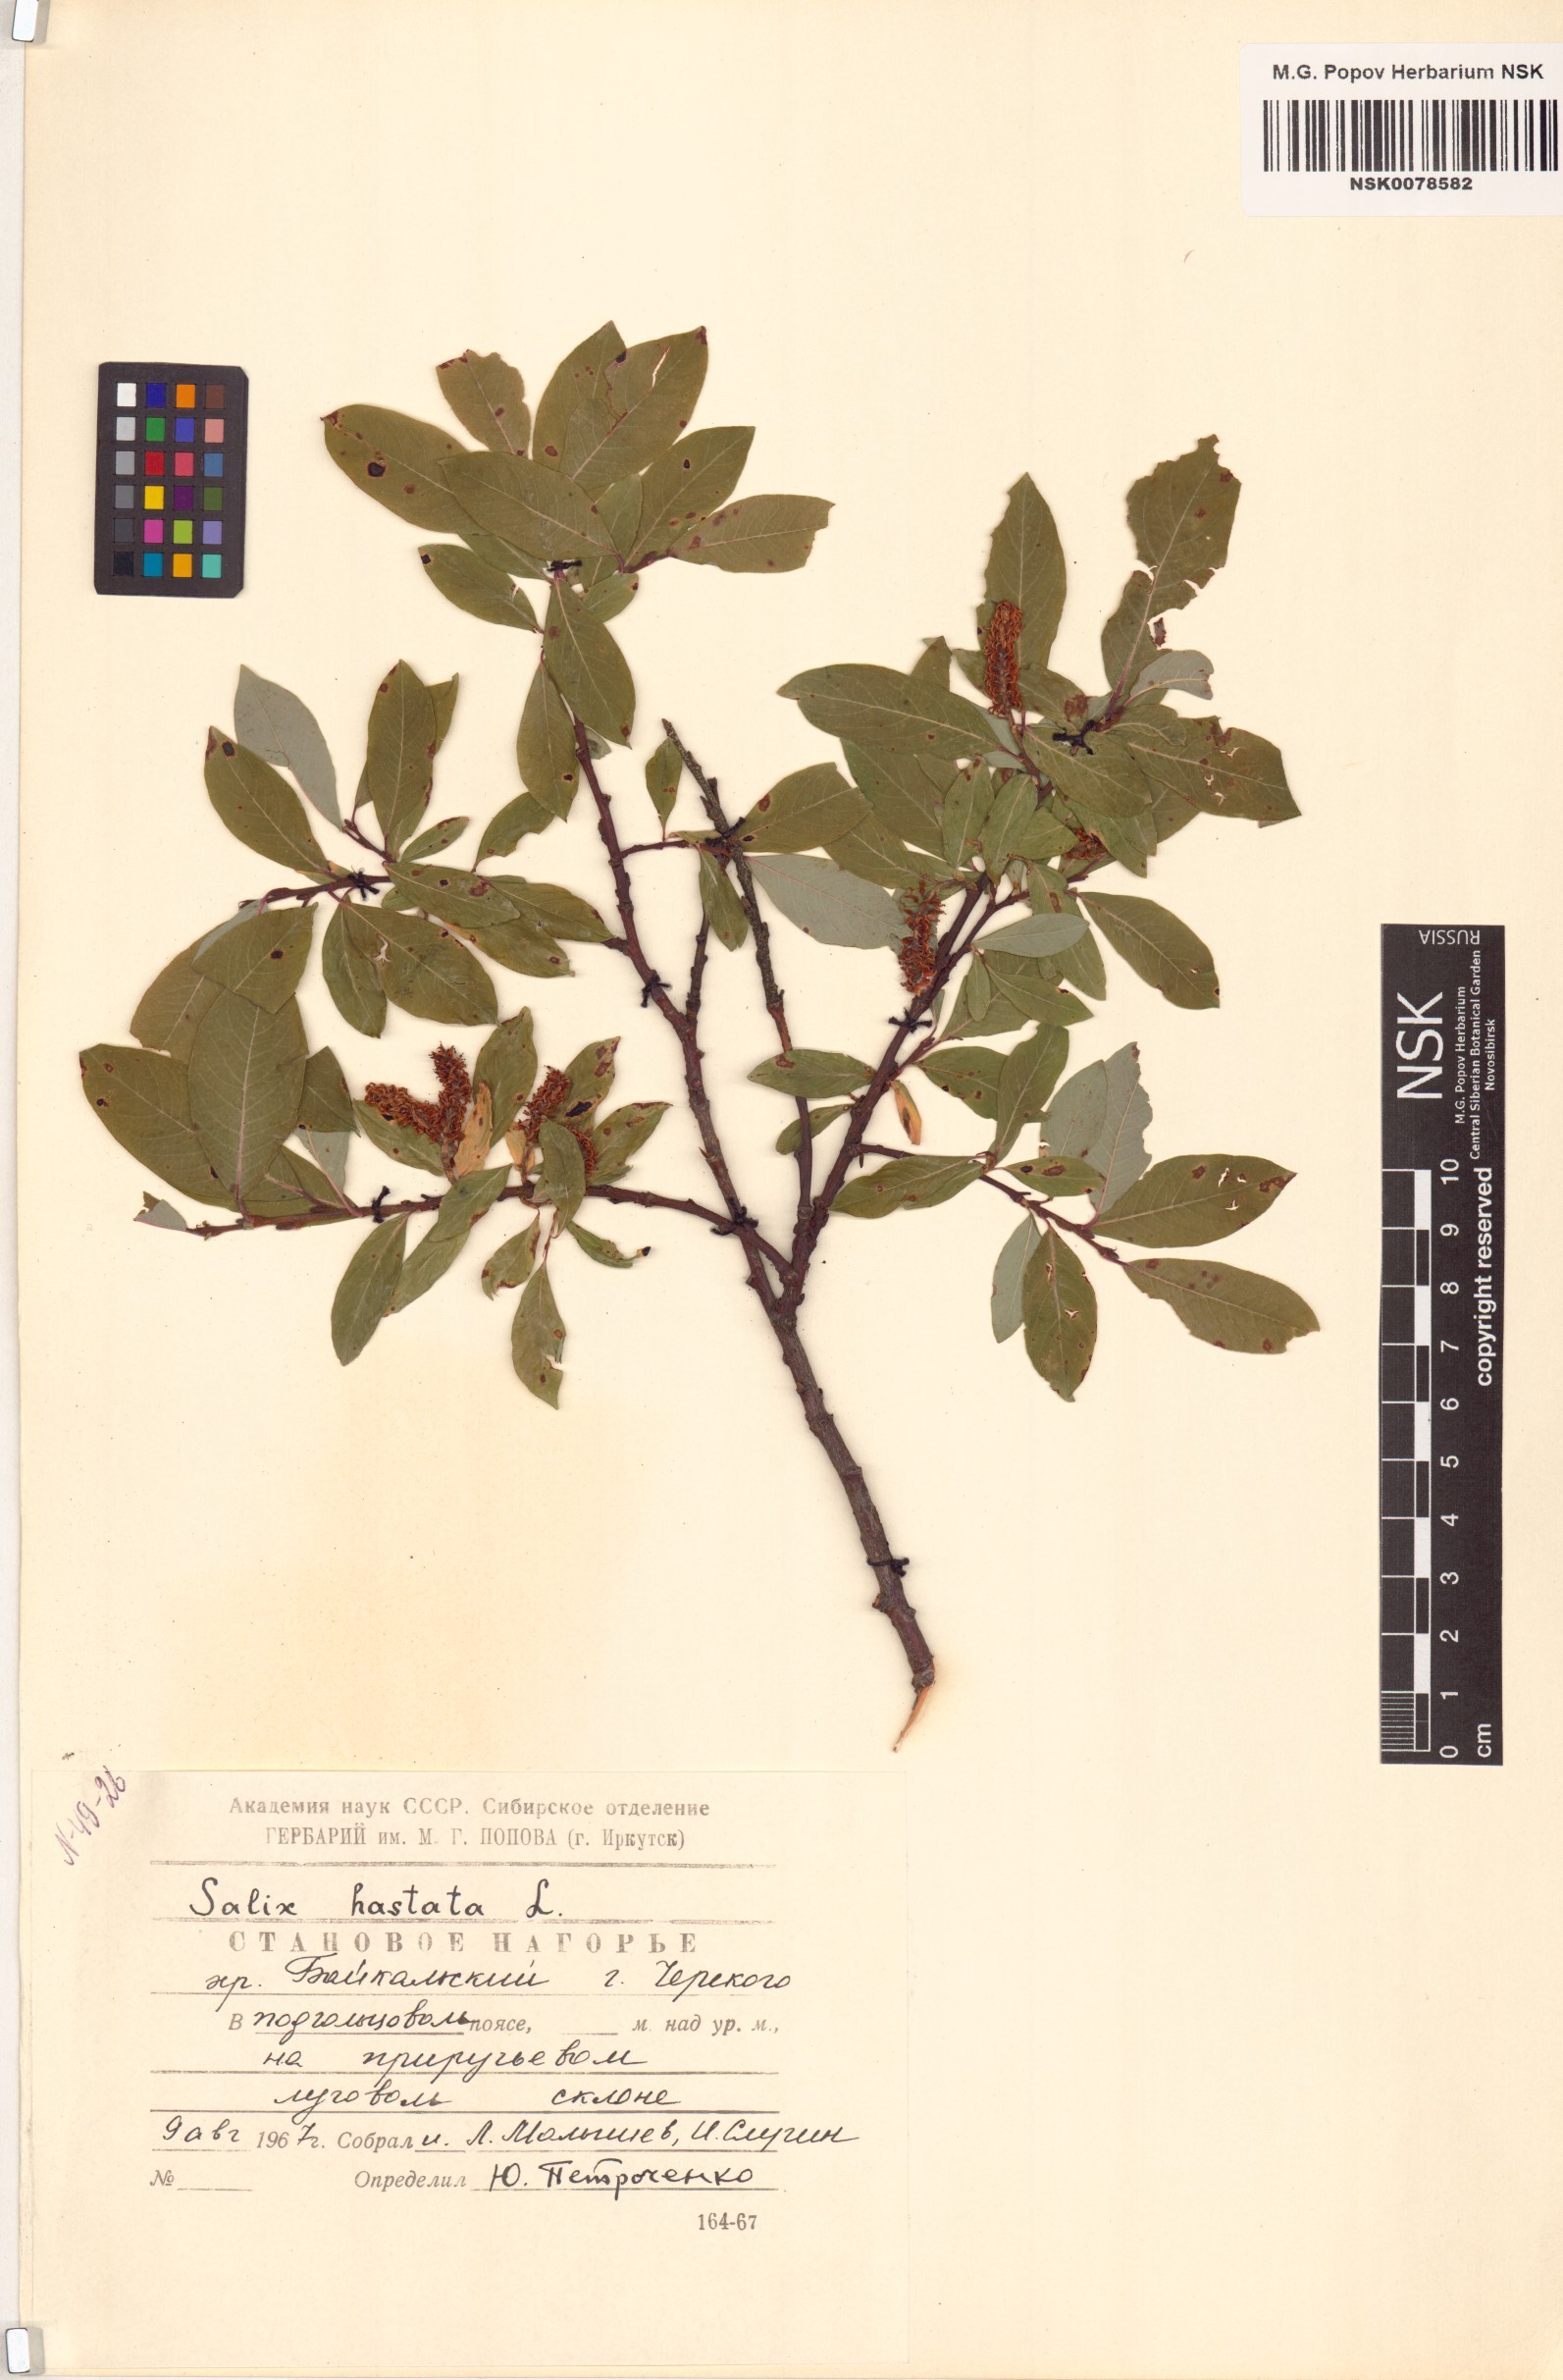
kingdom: Plantae
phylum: Tracheophyta
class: Magnoliopsida
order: Malpighiales
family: Salicaceae
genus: Salix
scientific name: Salix hastata
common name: Halberd willow
